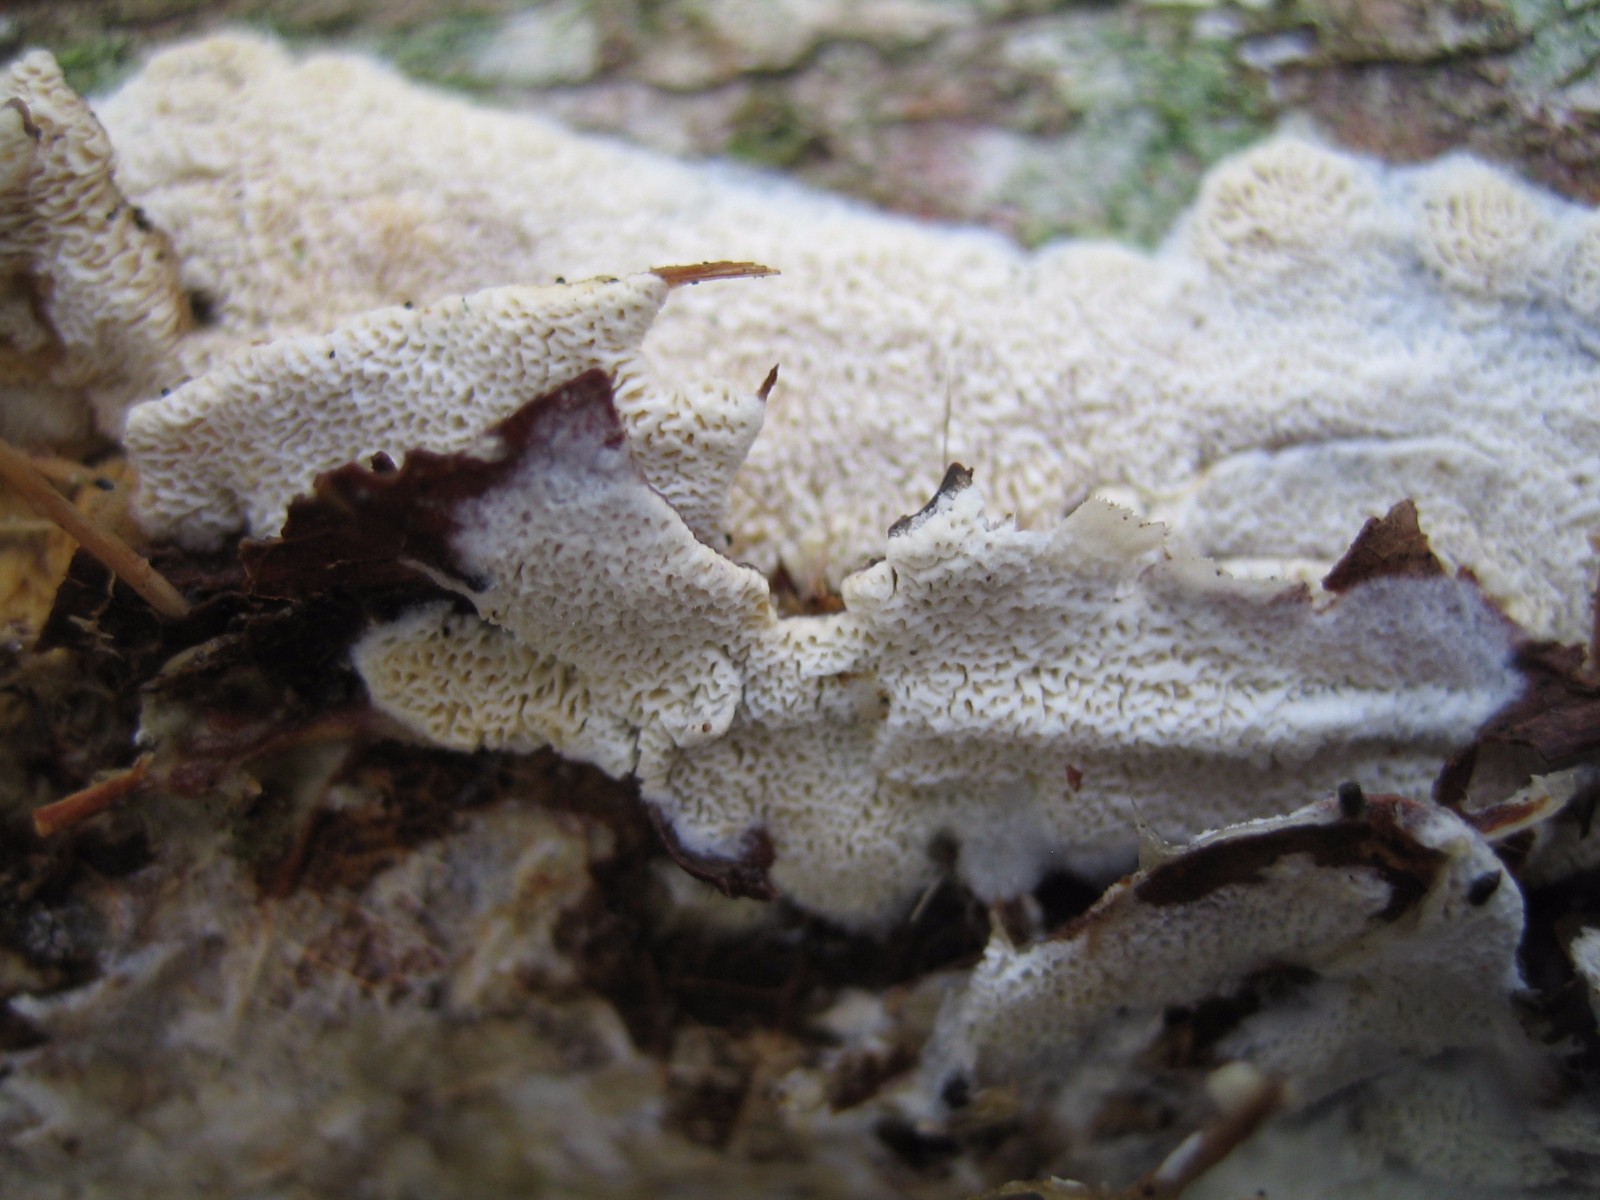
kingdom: Fungi
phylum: Basidiomycota
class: Agaricomycetes
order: Hymenochaetales
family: Schizoporaceae
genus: Xylodon
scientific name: Xylodon subtropicus
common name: labyrint-tandsvamp
